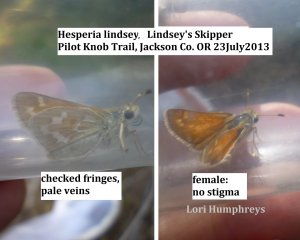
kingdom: Animalia
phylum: Arthropoda
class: Insecta
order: Lepidoptera
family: Hesperiidae
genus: Hesperia
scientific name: Hesperia lindseyi
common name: Lindsey's Skipper
